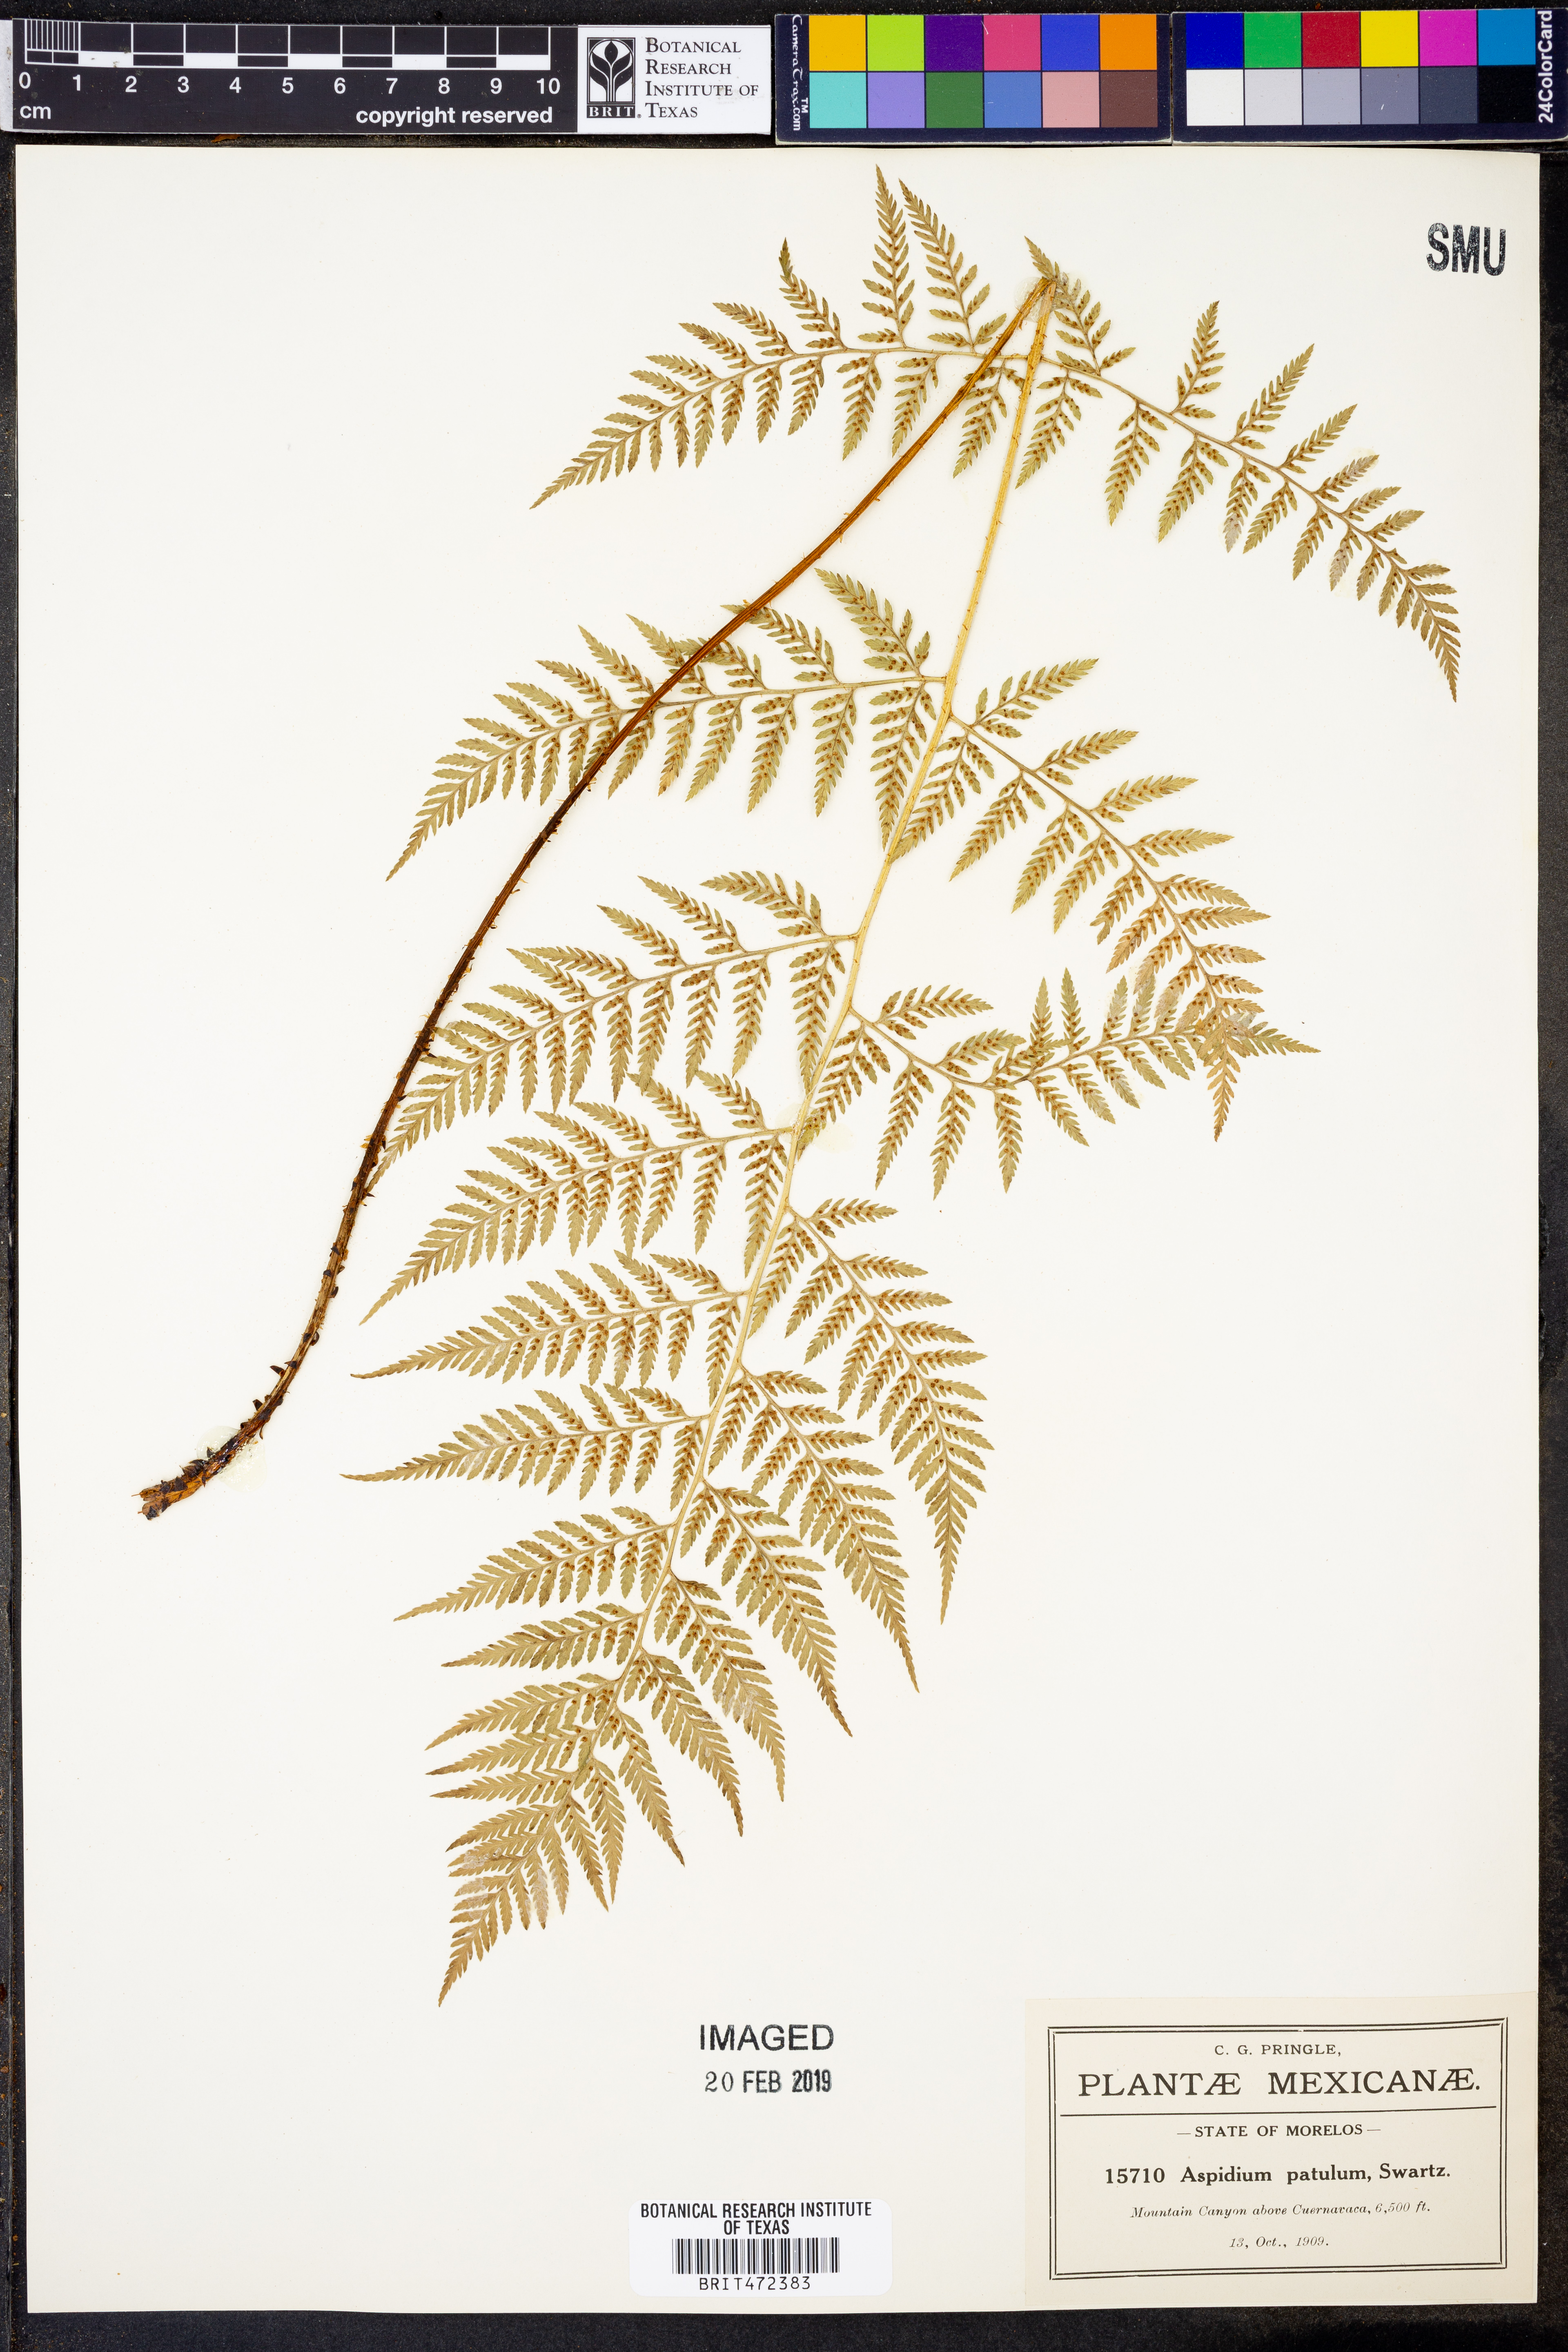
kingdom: Plantae
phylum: Tracheophyta
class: Polypodiopsida
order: Polypodiales
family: Dryopteridaceae
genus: Dryopteris
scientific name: Dryopteris rossii
